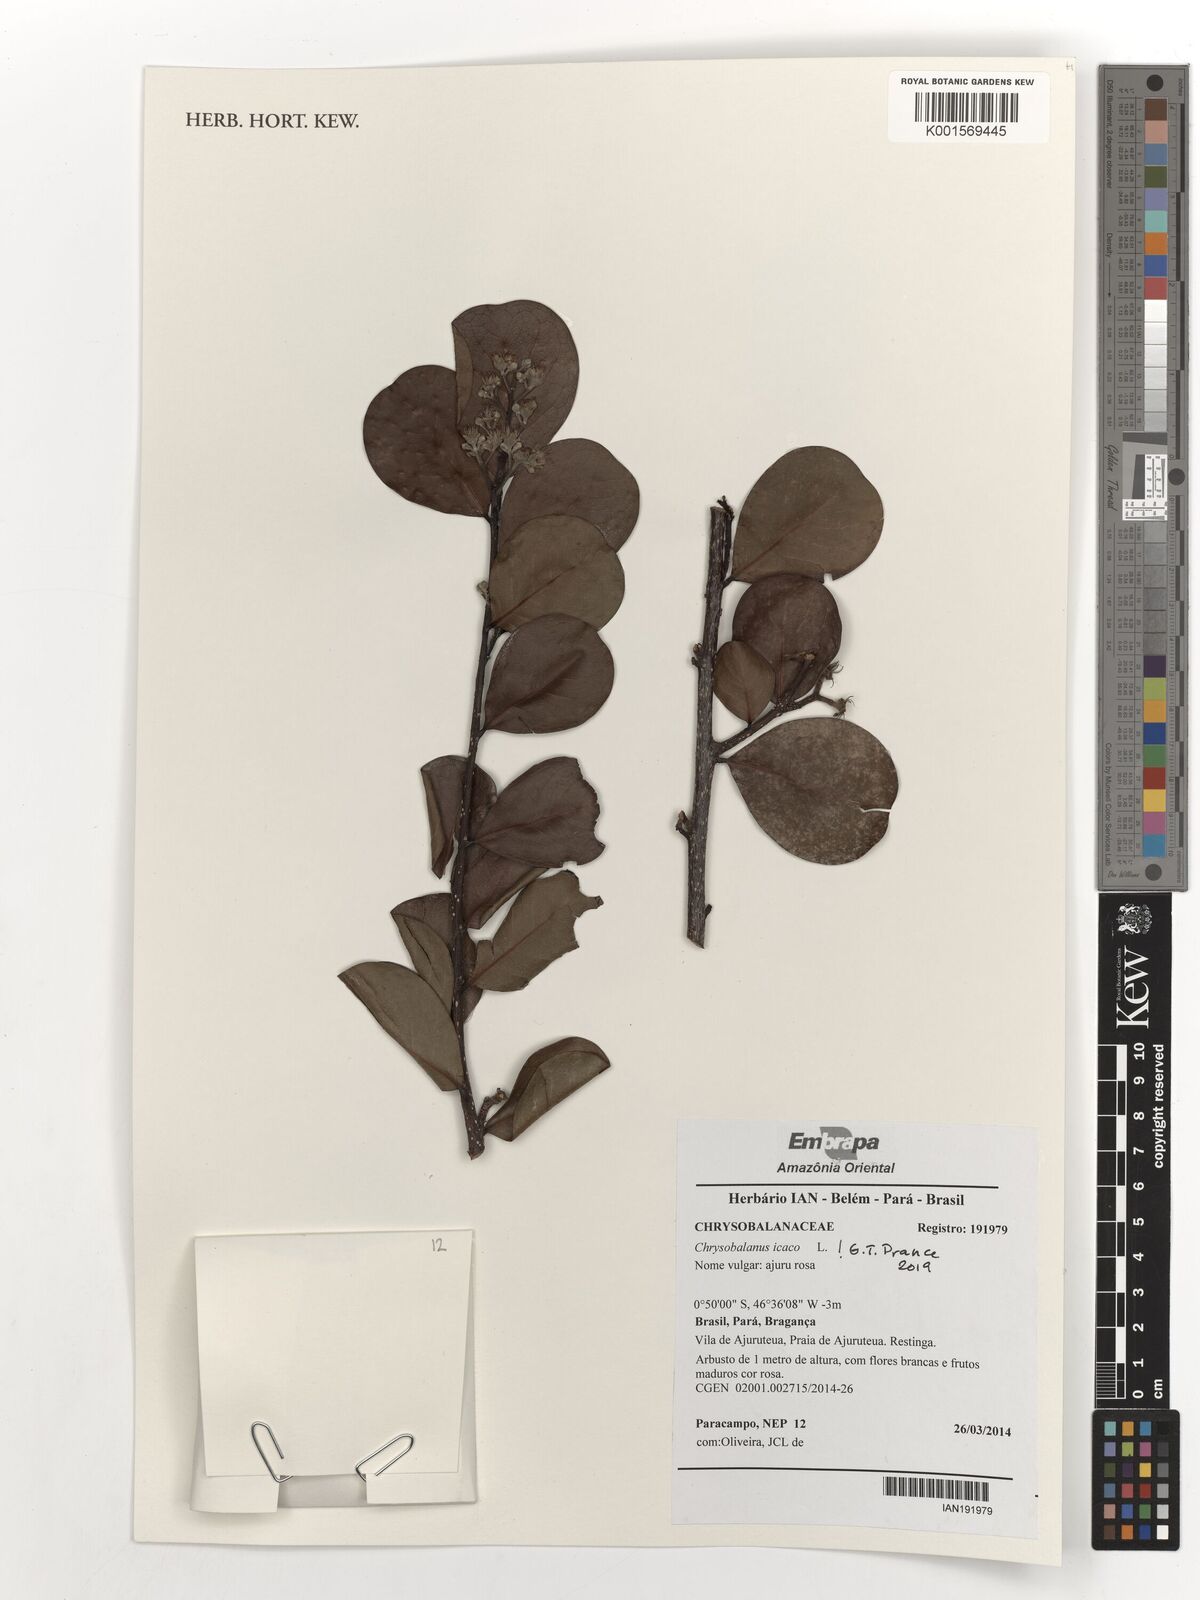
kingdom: Plantae
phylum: Tracheophyta
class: Magnoliopsida
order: Malpighiales
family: Chrysobalanaceae
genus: Chrysobalanus
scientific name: Chrysobalanus icaco
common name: Coco plum
